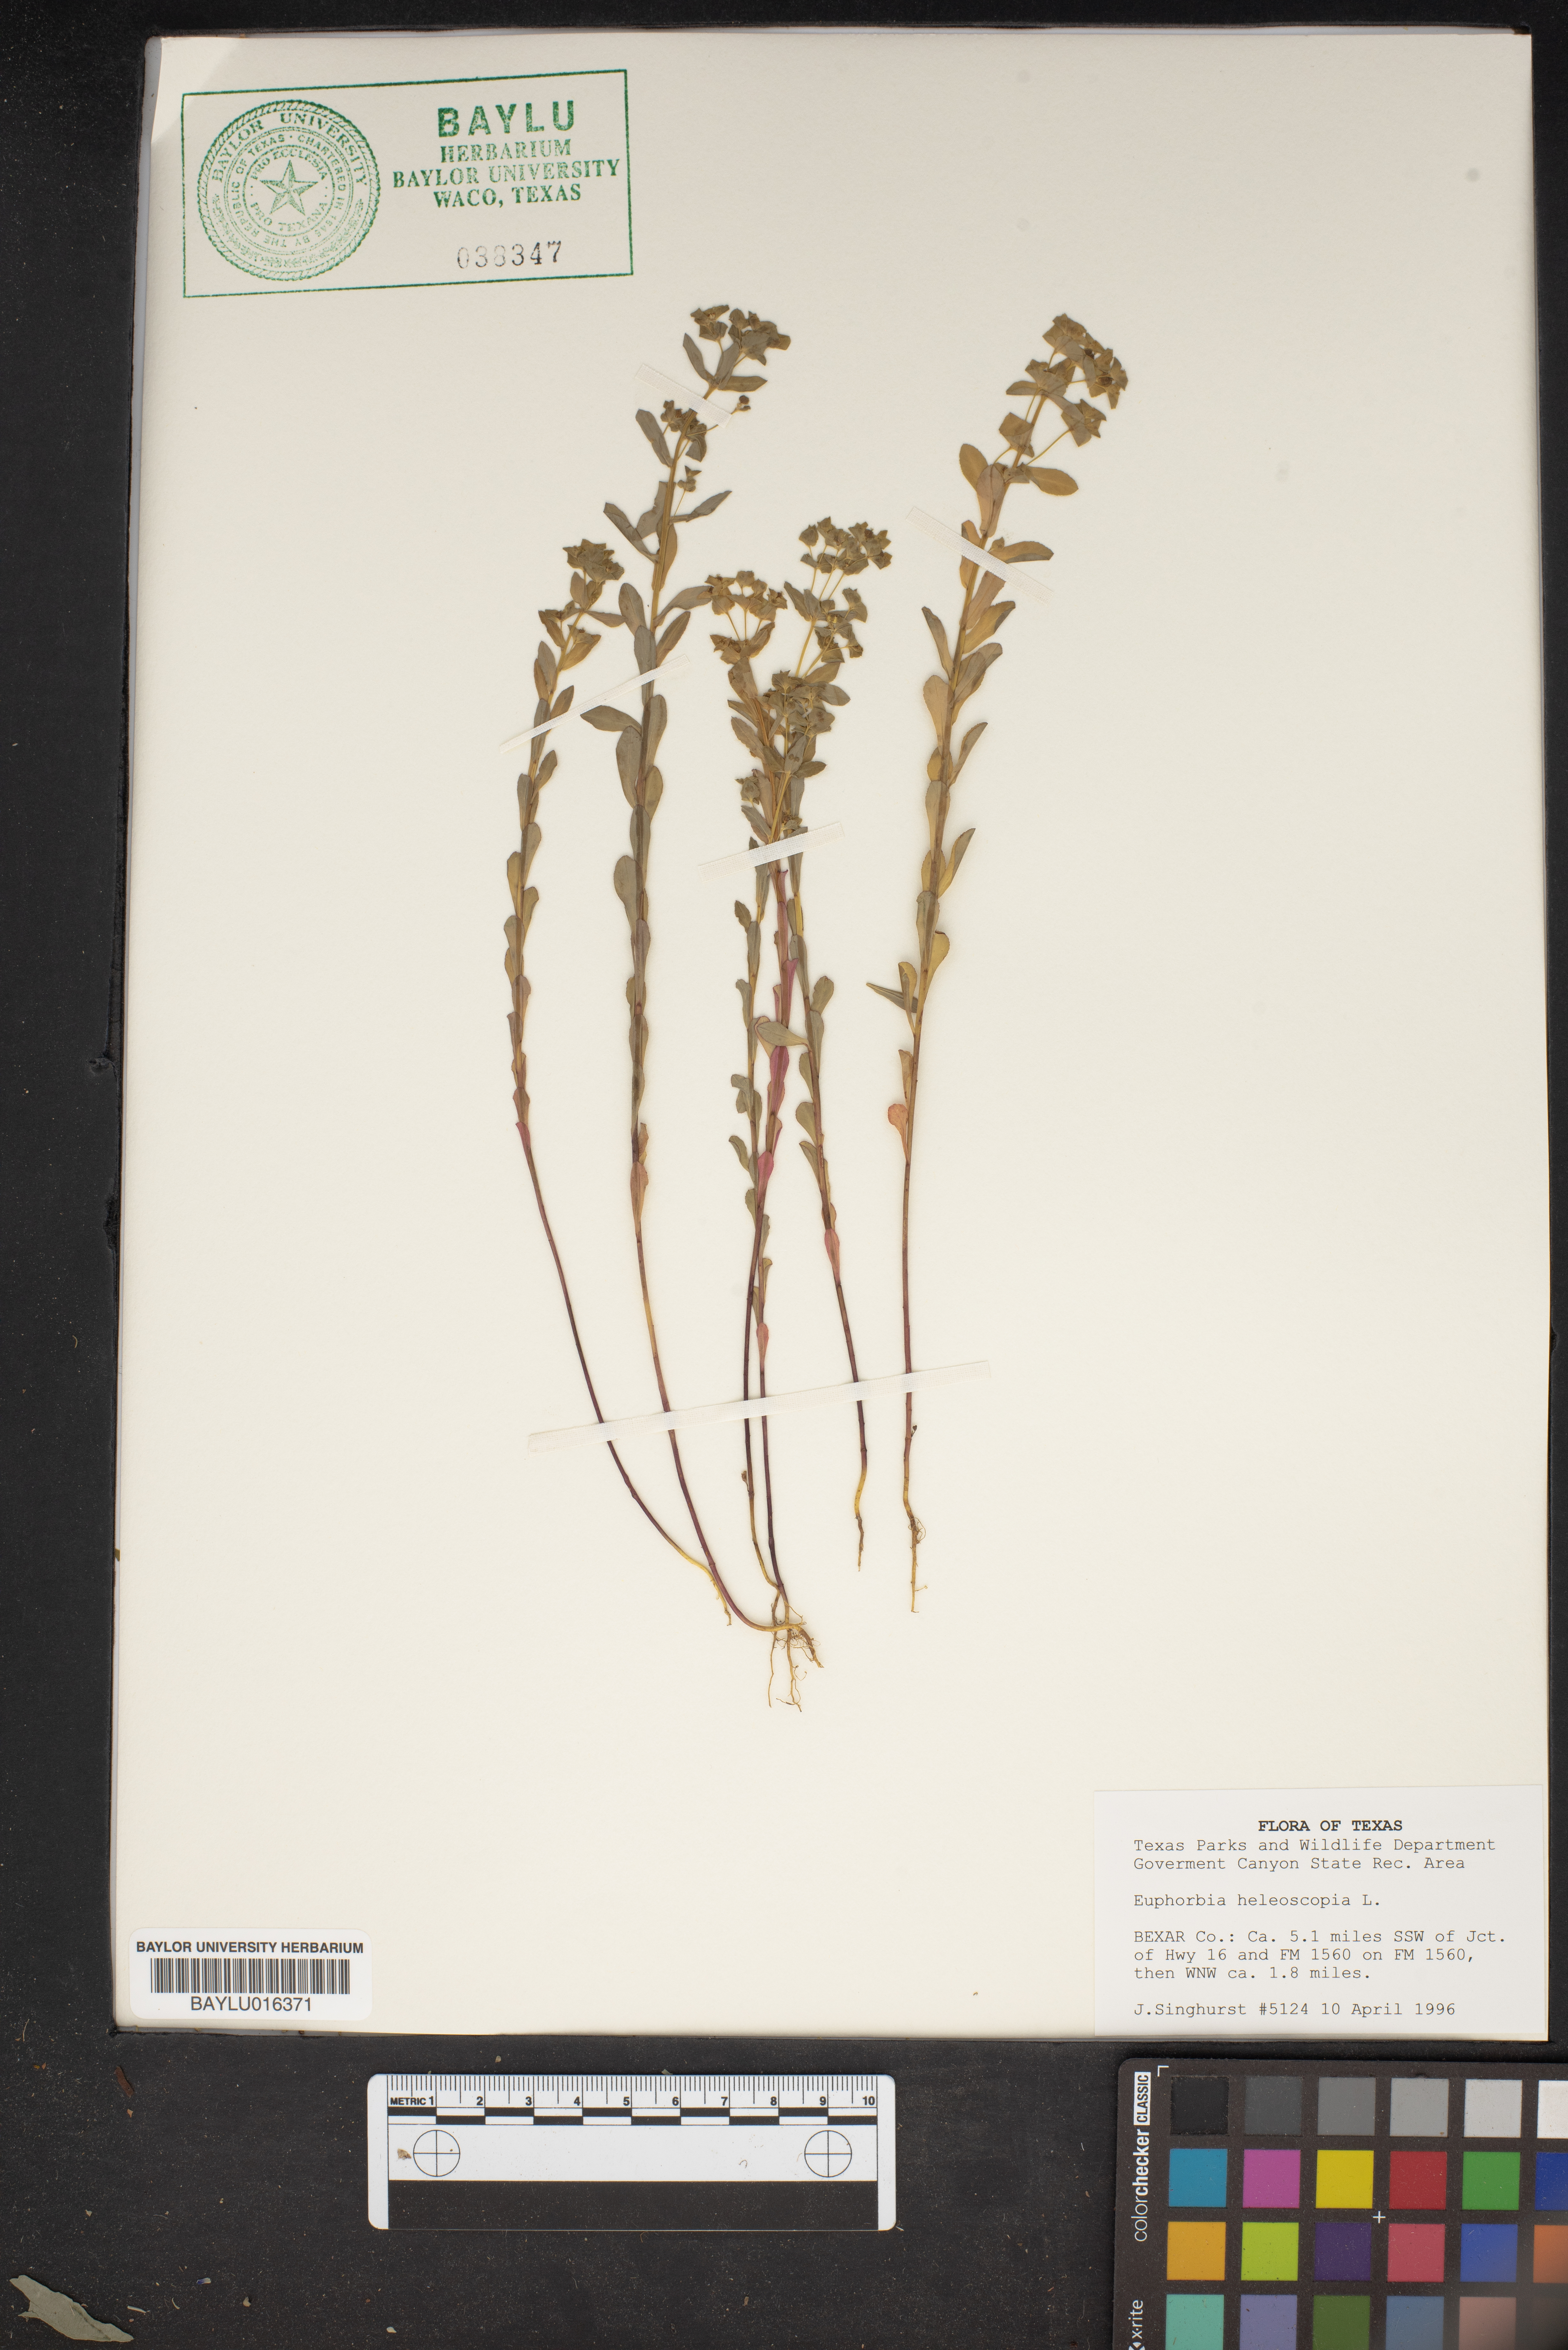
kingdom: Plantae
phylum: Tracheophyta
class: Magnoliopsida
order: Malpighiales
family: Euphorbiaceae
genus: Euphorbia
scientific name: Euphorbia helioscopia
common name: Sun spurge
